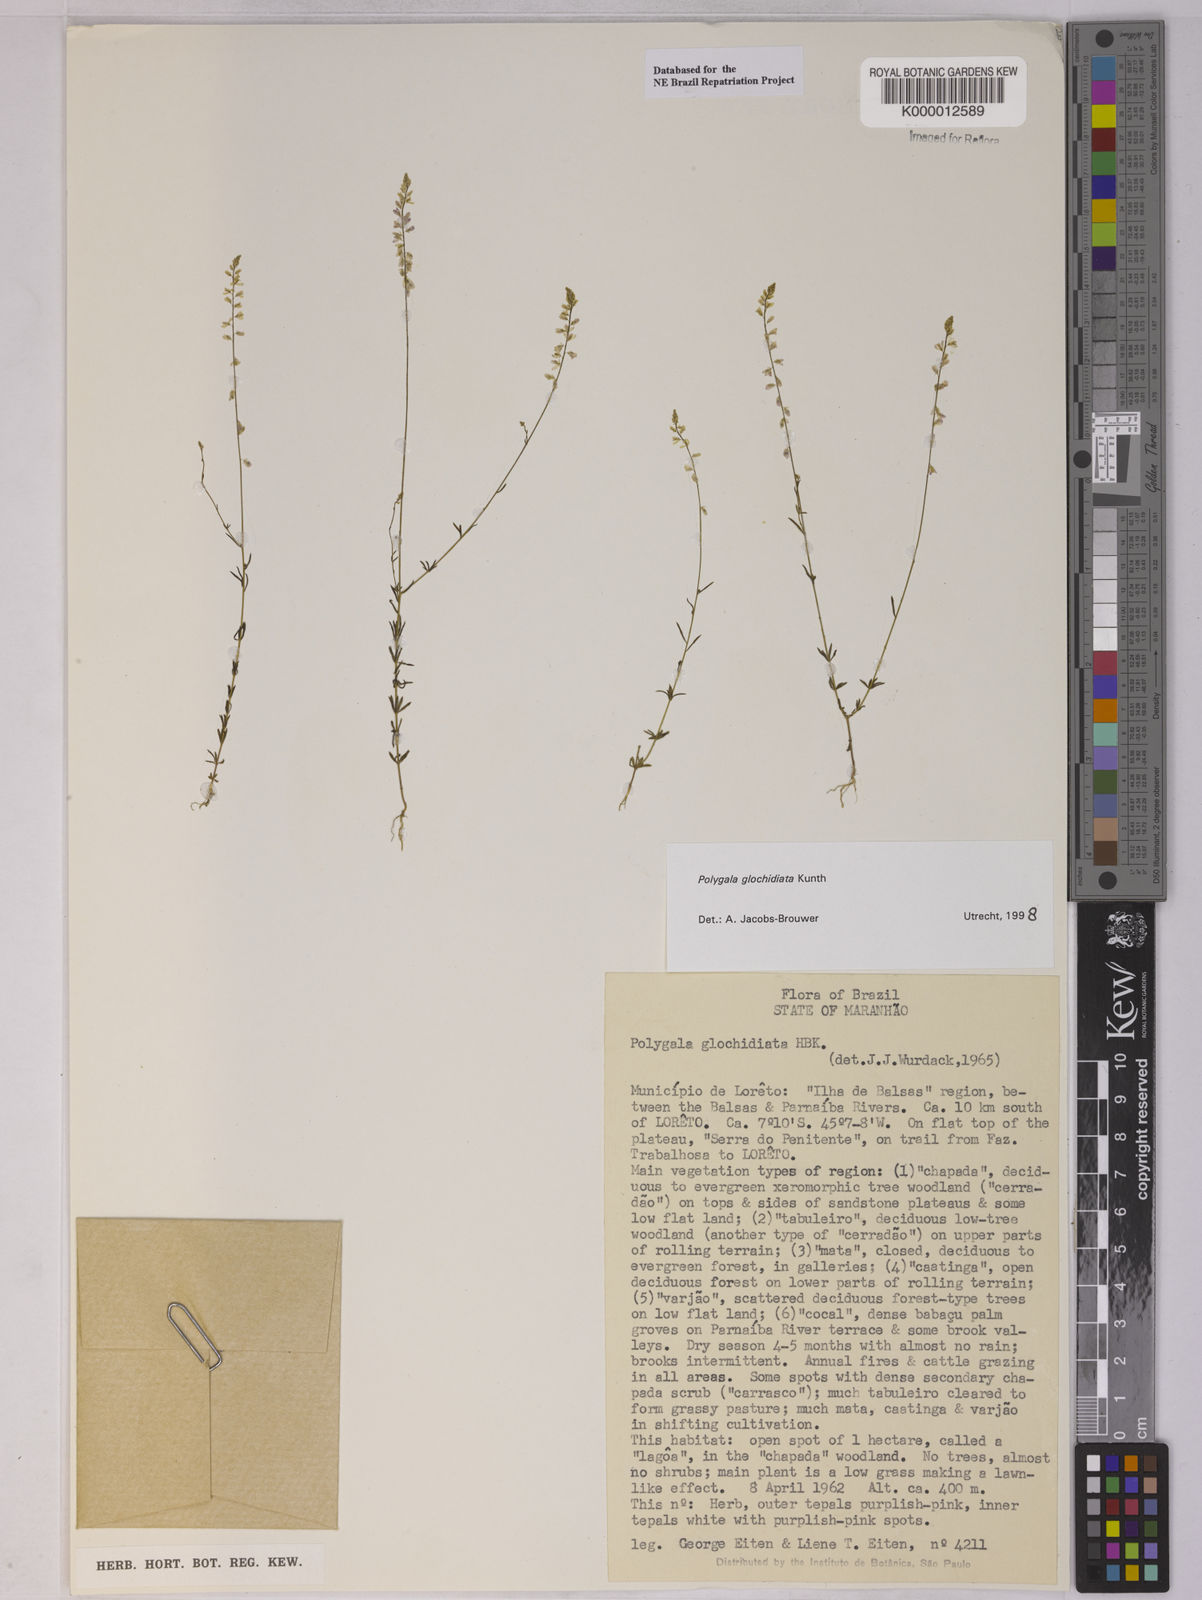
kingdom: Plantae
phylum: Tracheophyta
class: Magnoliopsida
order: Fabales
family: Polygalaceae
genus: Polygala
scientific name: Polygala glochidiata
